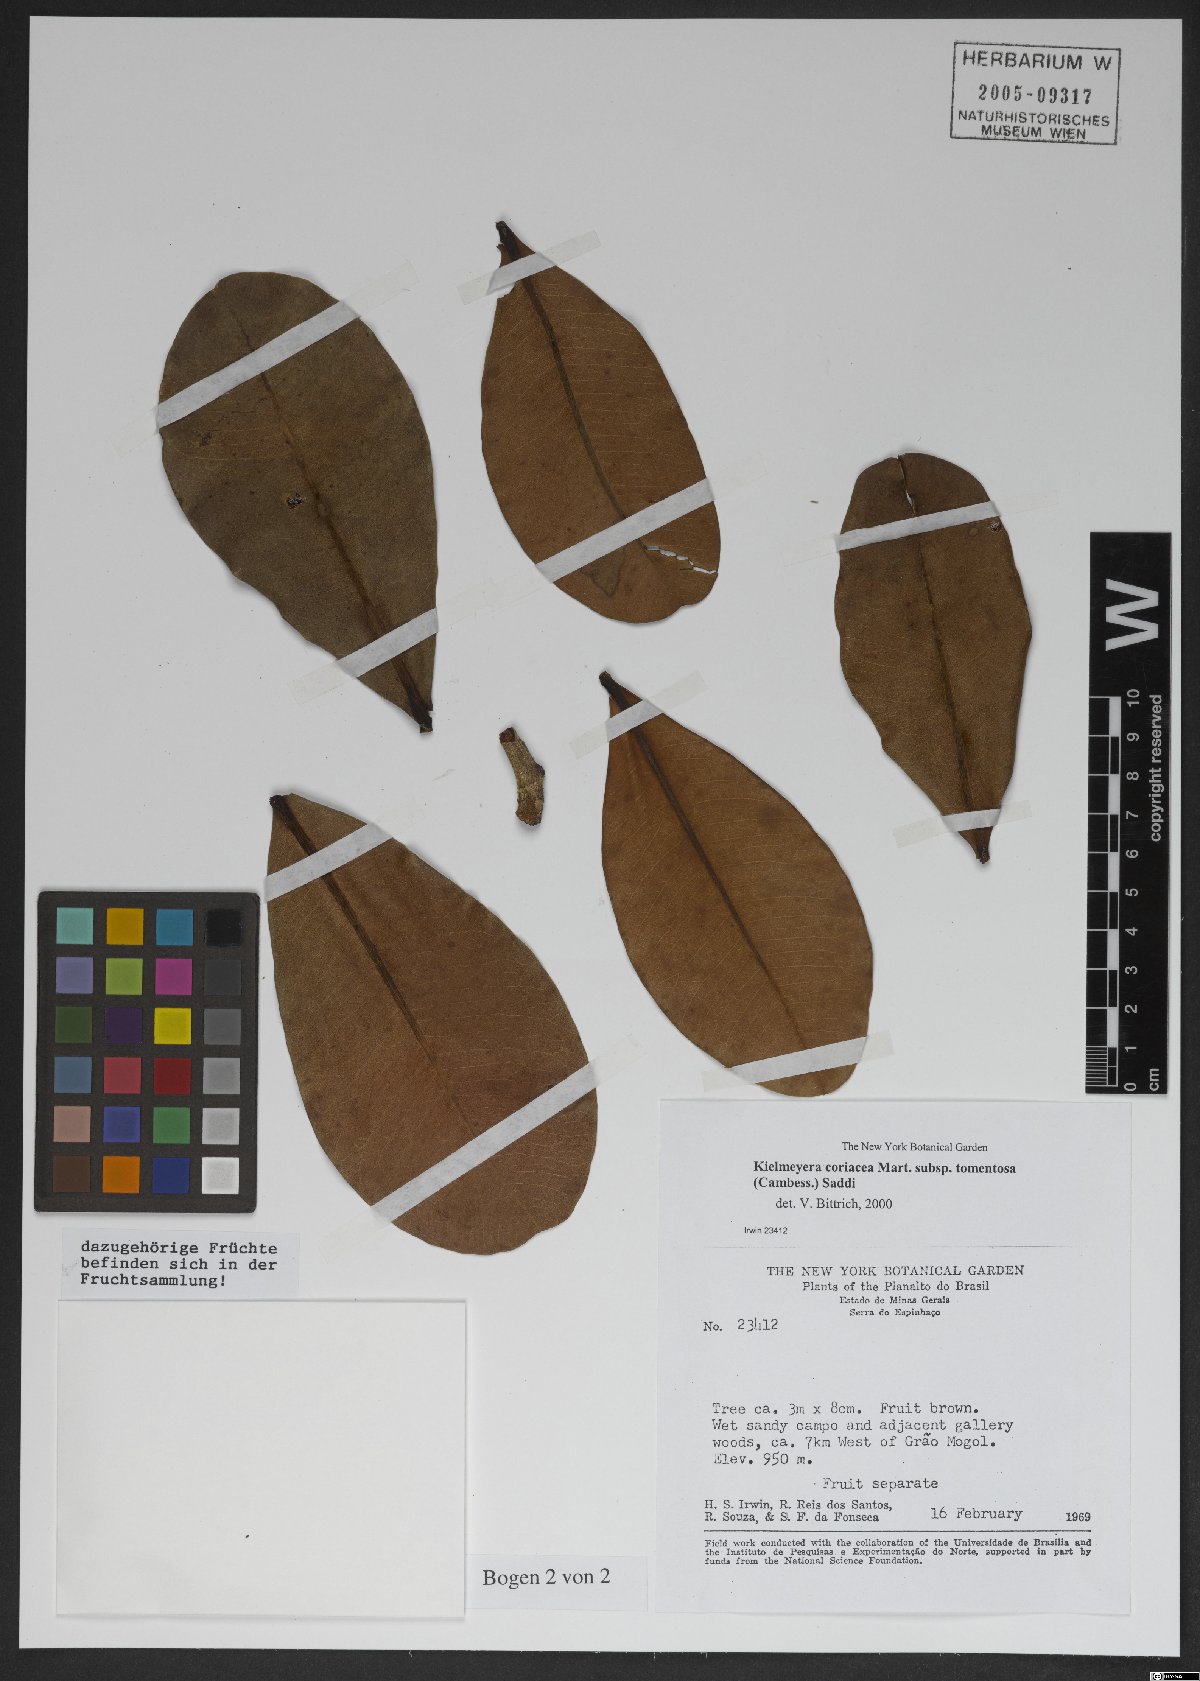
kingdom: Plantae
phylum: Tracheophyta
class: Magnoliopsida
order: Malpighiales
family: Calophyllaceae
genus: Kielmeyera
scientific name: Kielmeyera tomentosa
